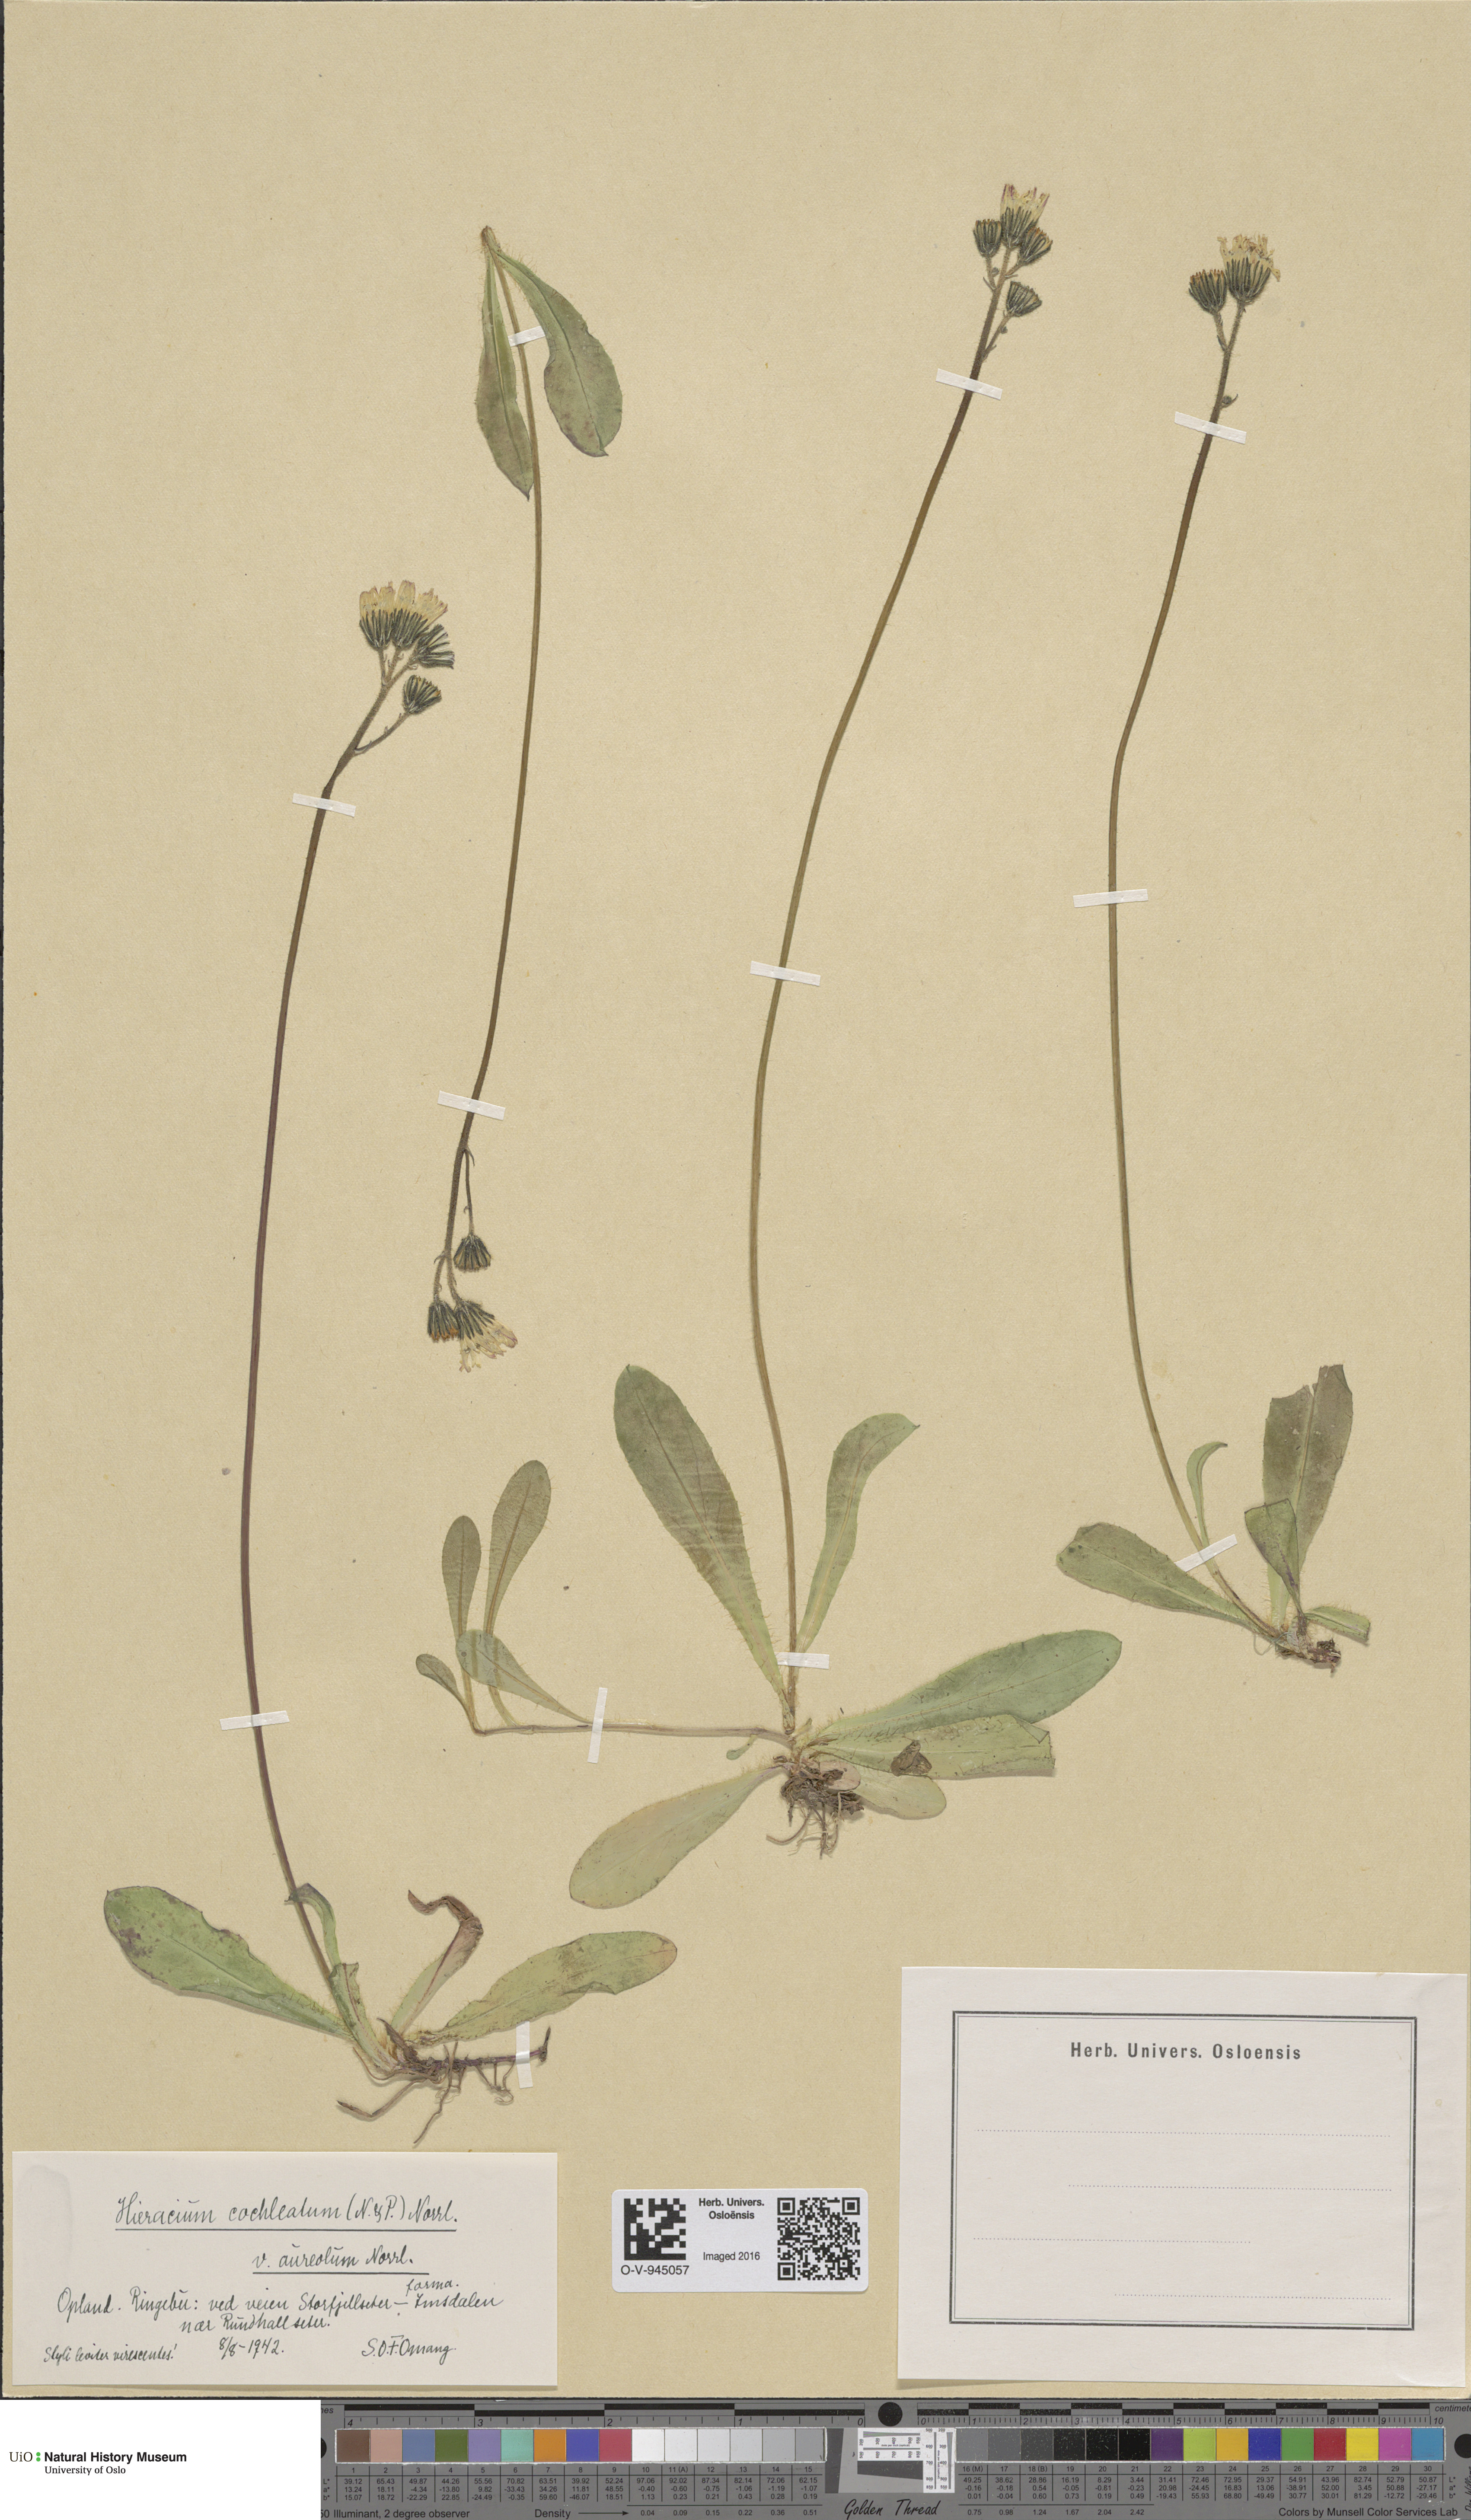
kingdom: Plantae
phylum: Tracheophyta
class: Magnoliopsida
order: Asterales
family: Asteraceae
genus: Pilosella
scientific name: Pilosella floribunda
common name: Glaucous hawkweed
